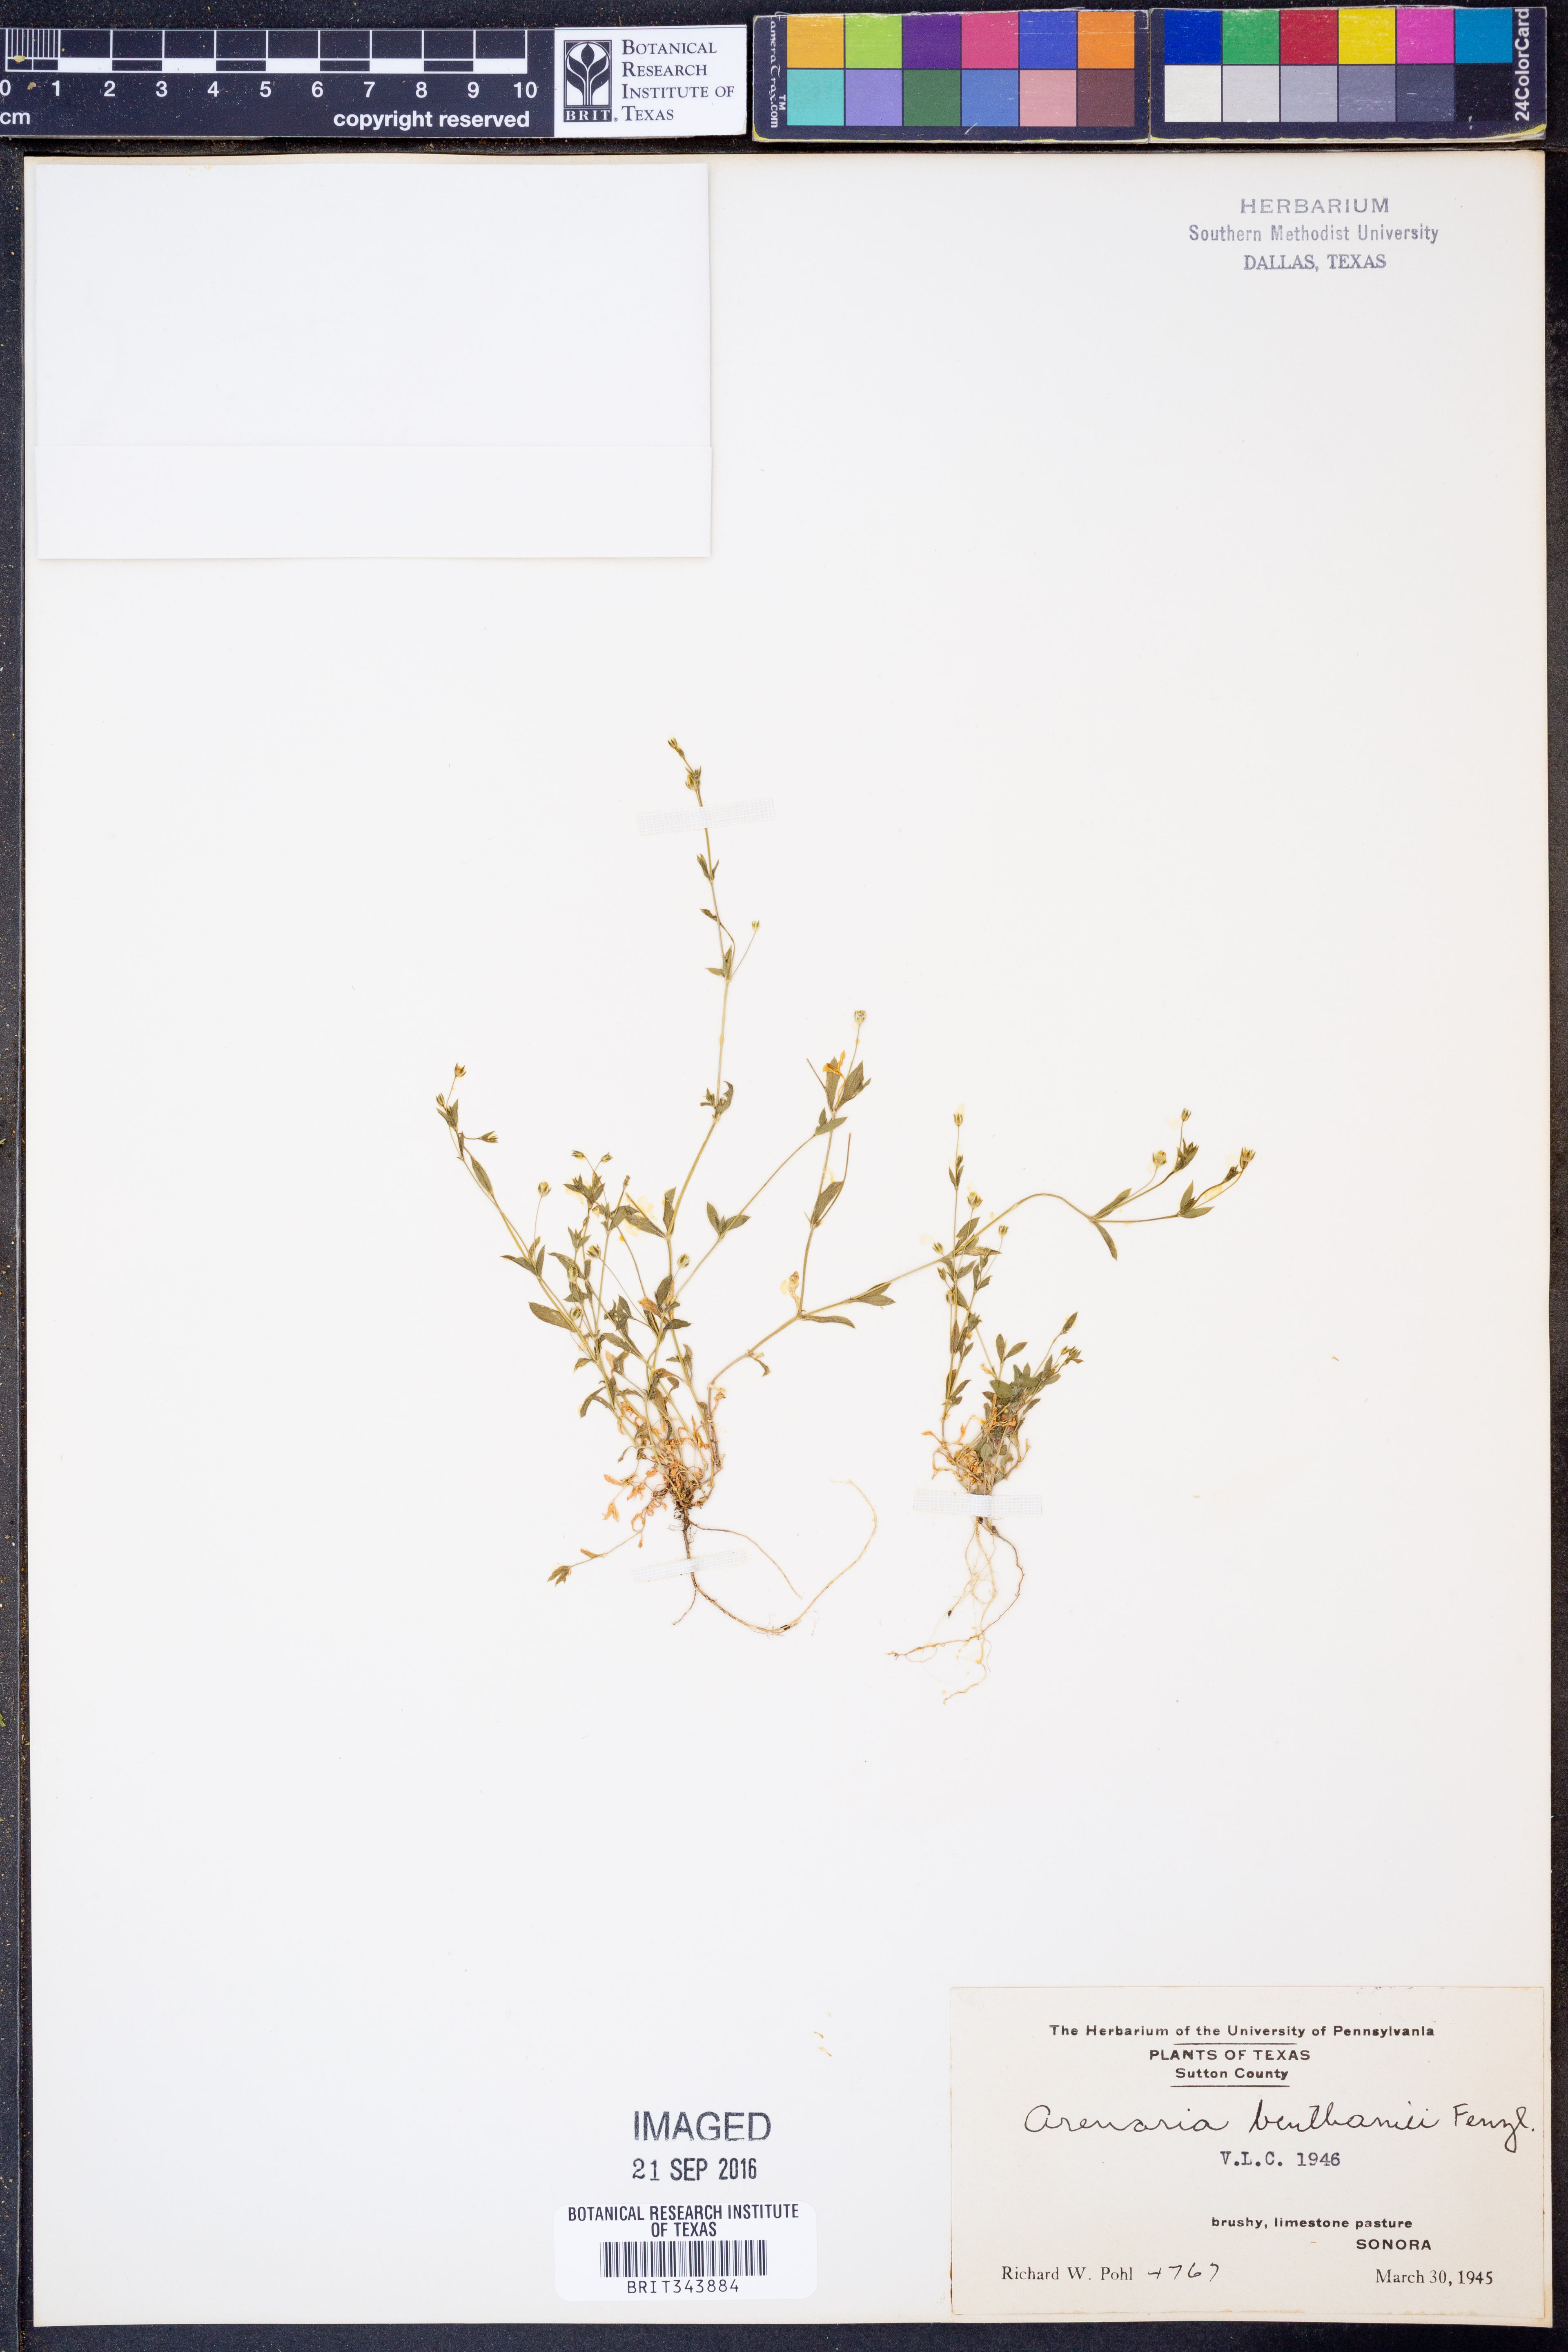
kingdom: Plantae
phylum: Tracheophyta
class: Magnoliopsida
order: Caryophyllales
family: Caryophyllaceae
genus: Arenaria
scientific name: Arenaria benthamii
